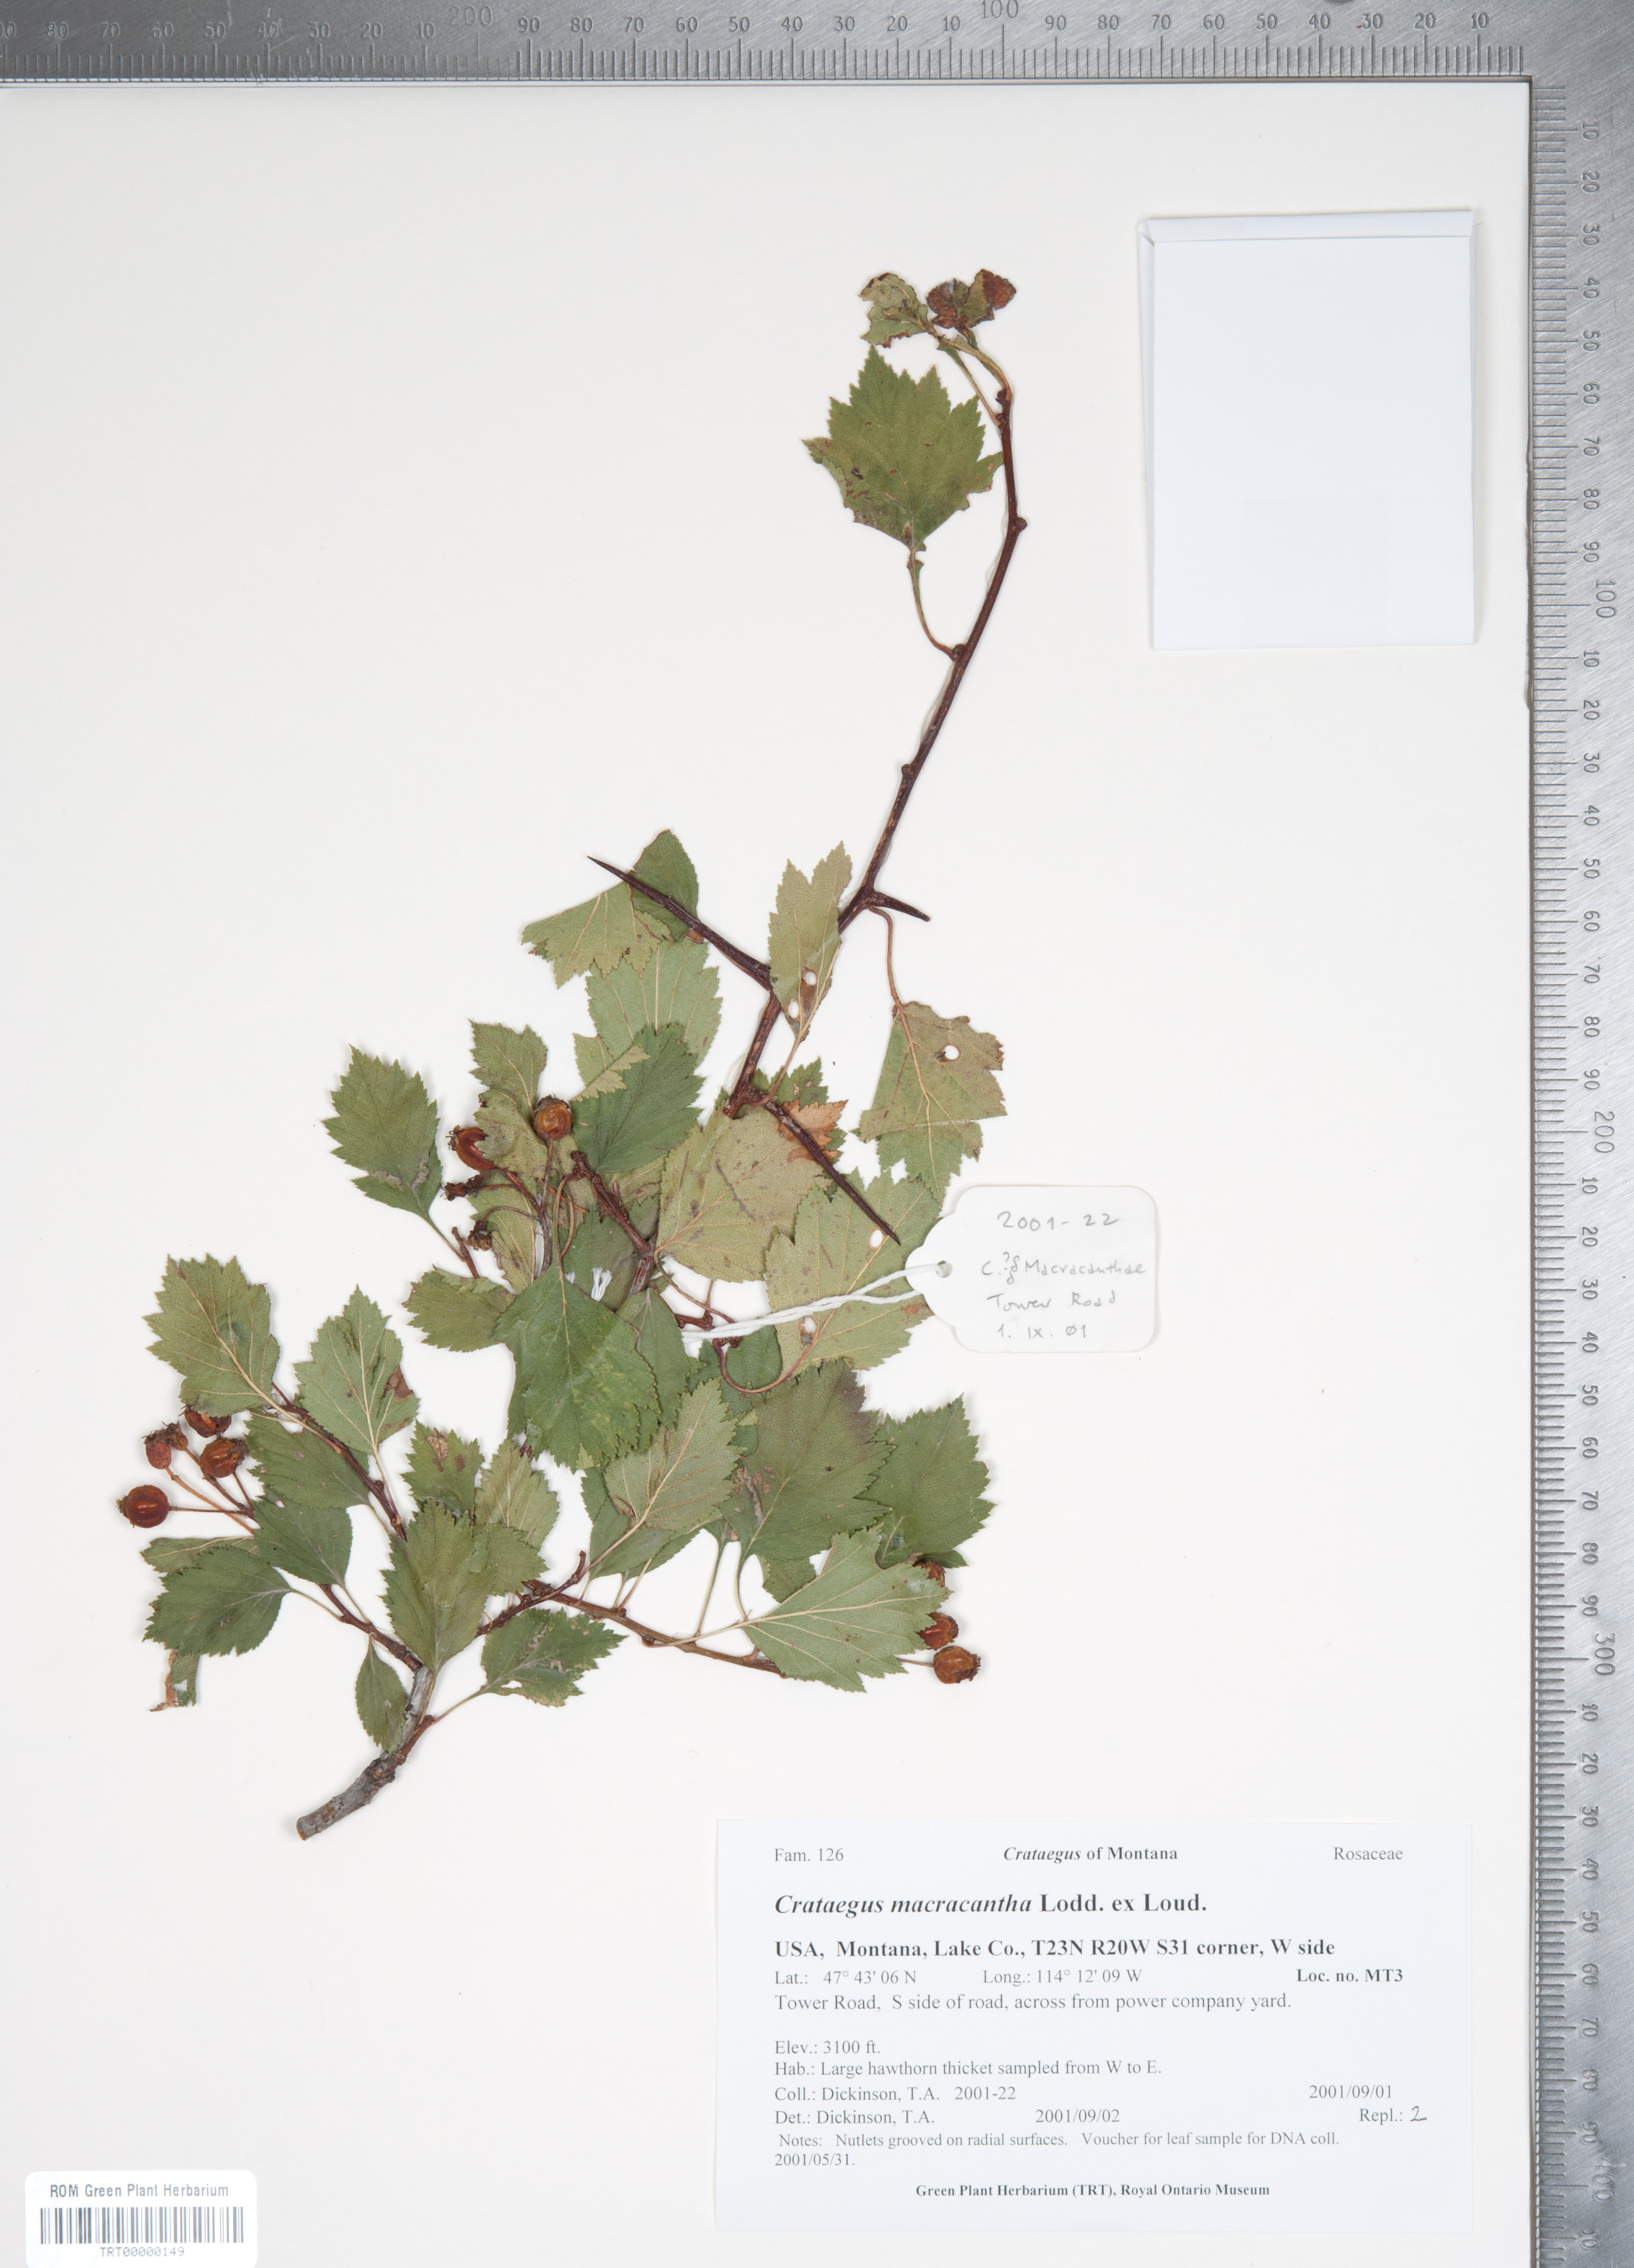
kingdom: Plantae
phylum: Tracheophyta
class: Magnoliopsida
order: Rosales
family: Rosaceae
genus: Crataegus
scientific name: Crataegus macracantha
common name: Large-thorn hawthorn
